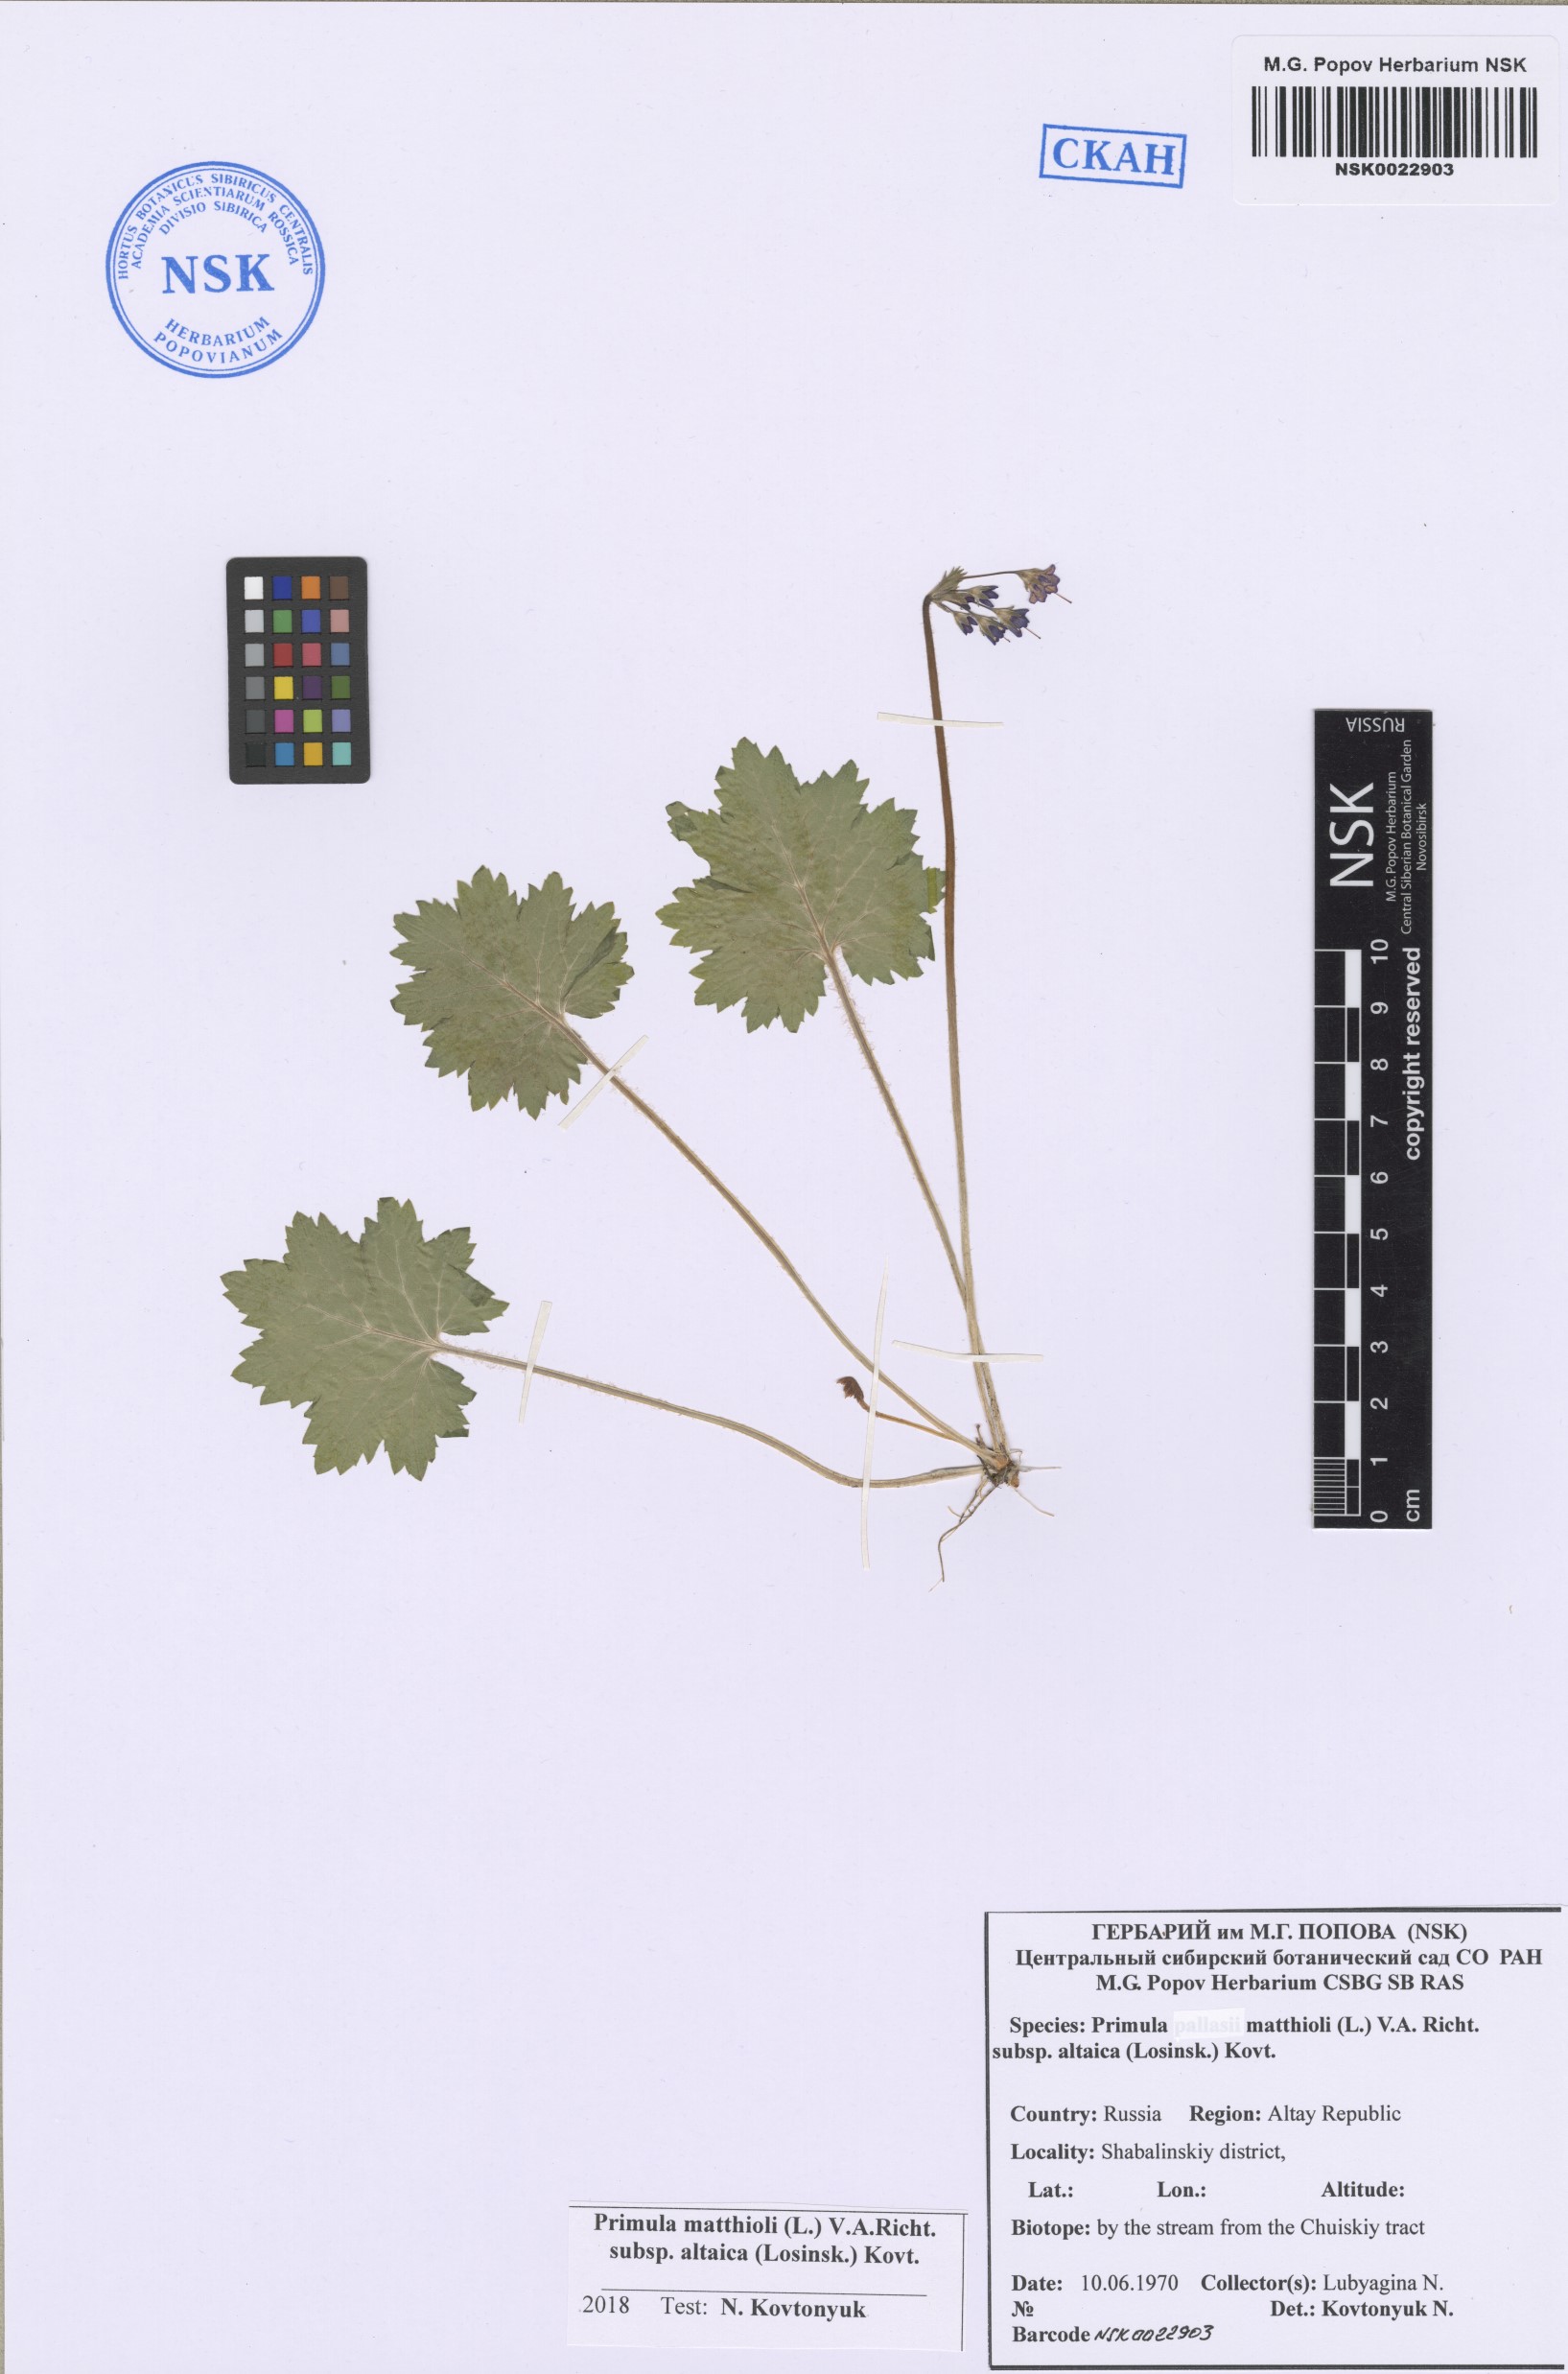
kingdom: Plantae
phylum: Tracheophyta
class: Magnoliopsida
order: Ericales
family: Primulaceae
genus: Primula
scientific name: Primula matthioli
